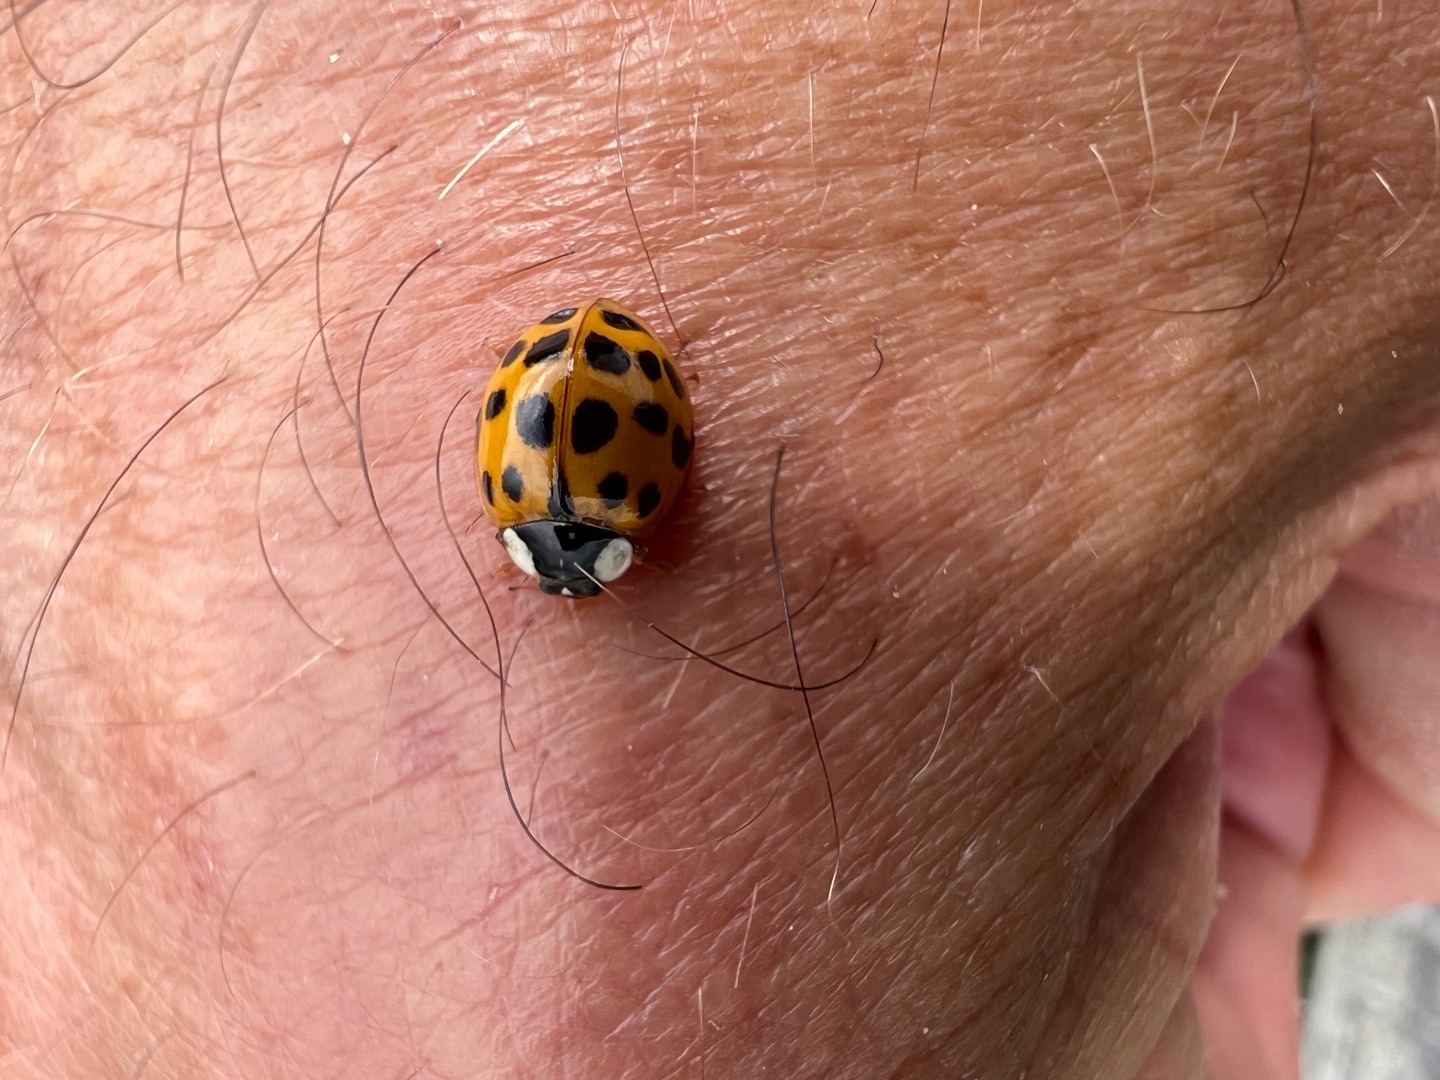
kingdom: Animalia
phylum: Arthropoda
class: Insecta
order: Coleoptera
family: Coccinellidae
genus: Harmonia
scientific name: Harmonia axyridis
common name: Harlekinmariehøne
